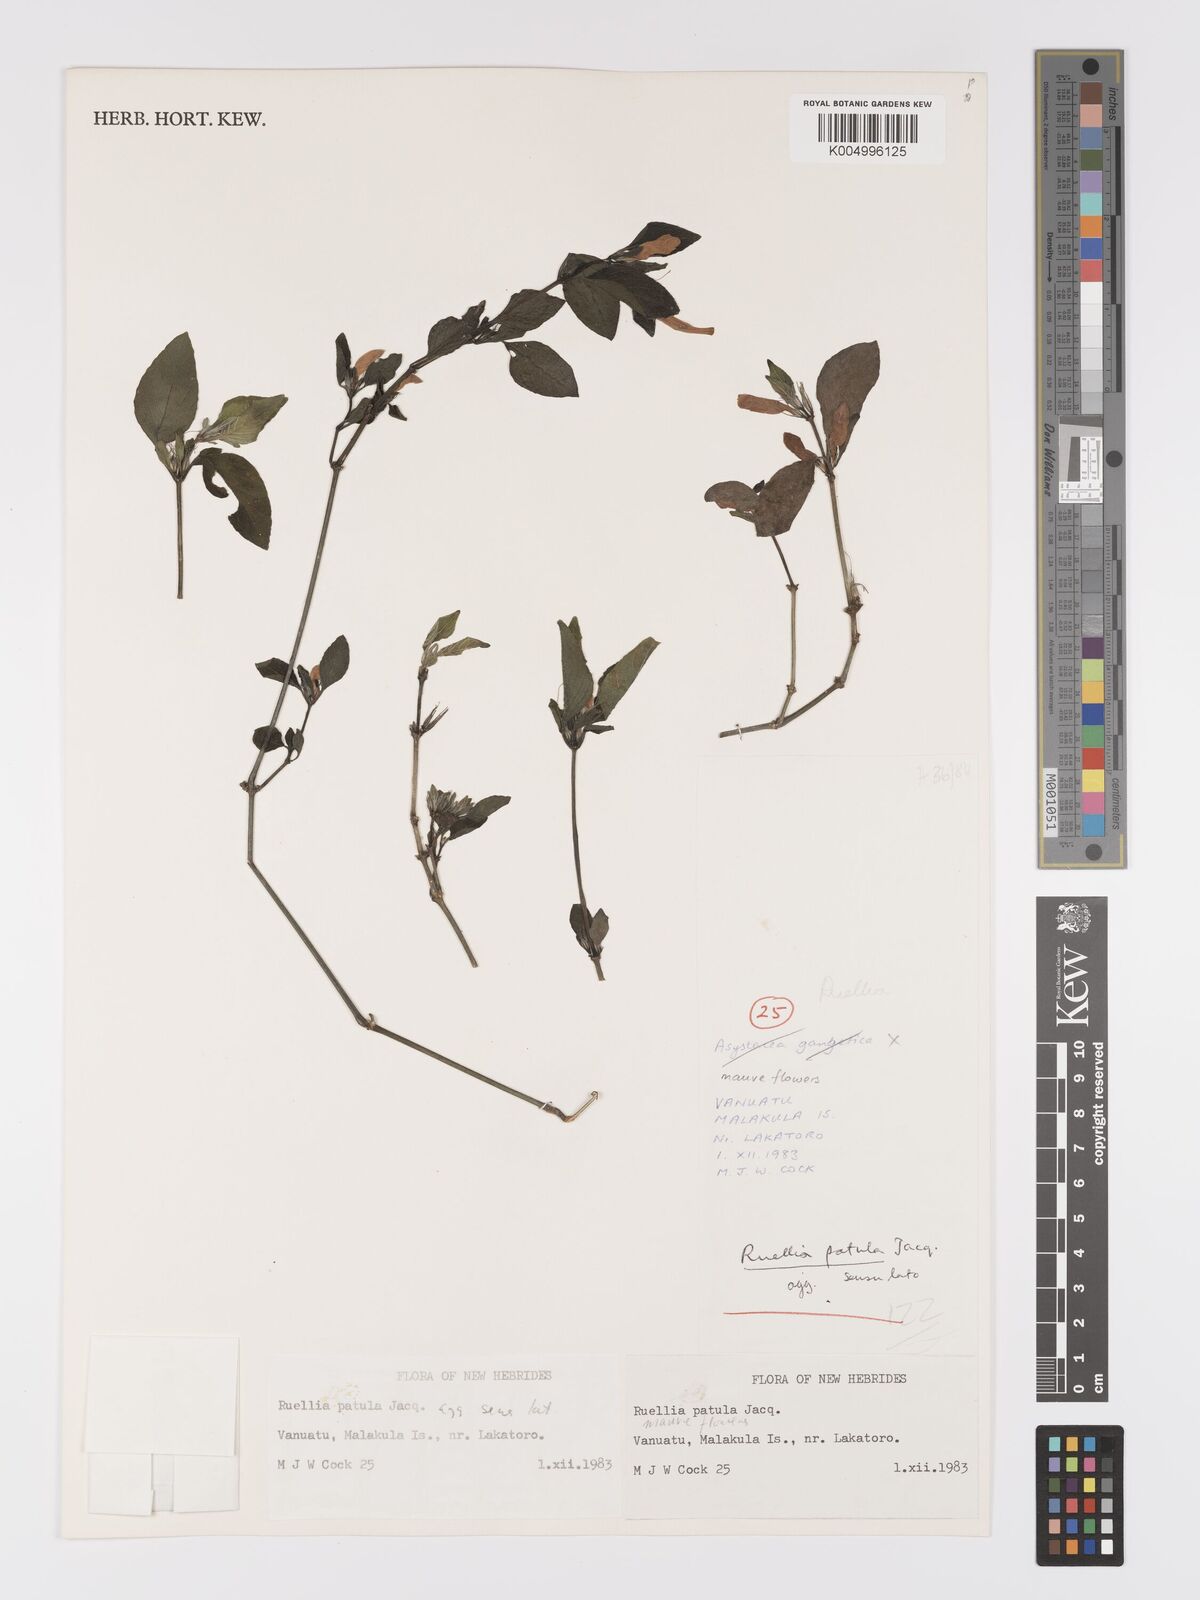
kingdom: Plantae
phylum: Tracheophyta
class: Magnoliopsida
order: Lamiales
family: Acanthaceae
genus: Ruellia
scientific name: Ruellia
